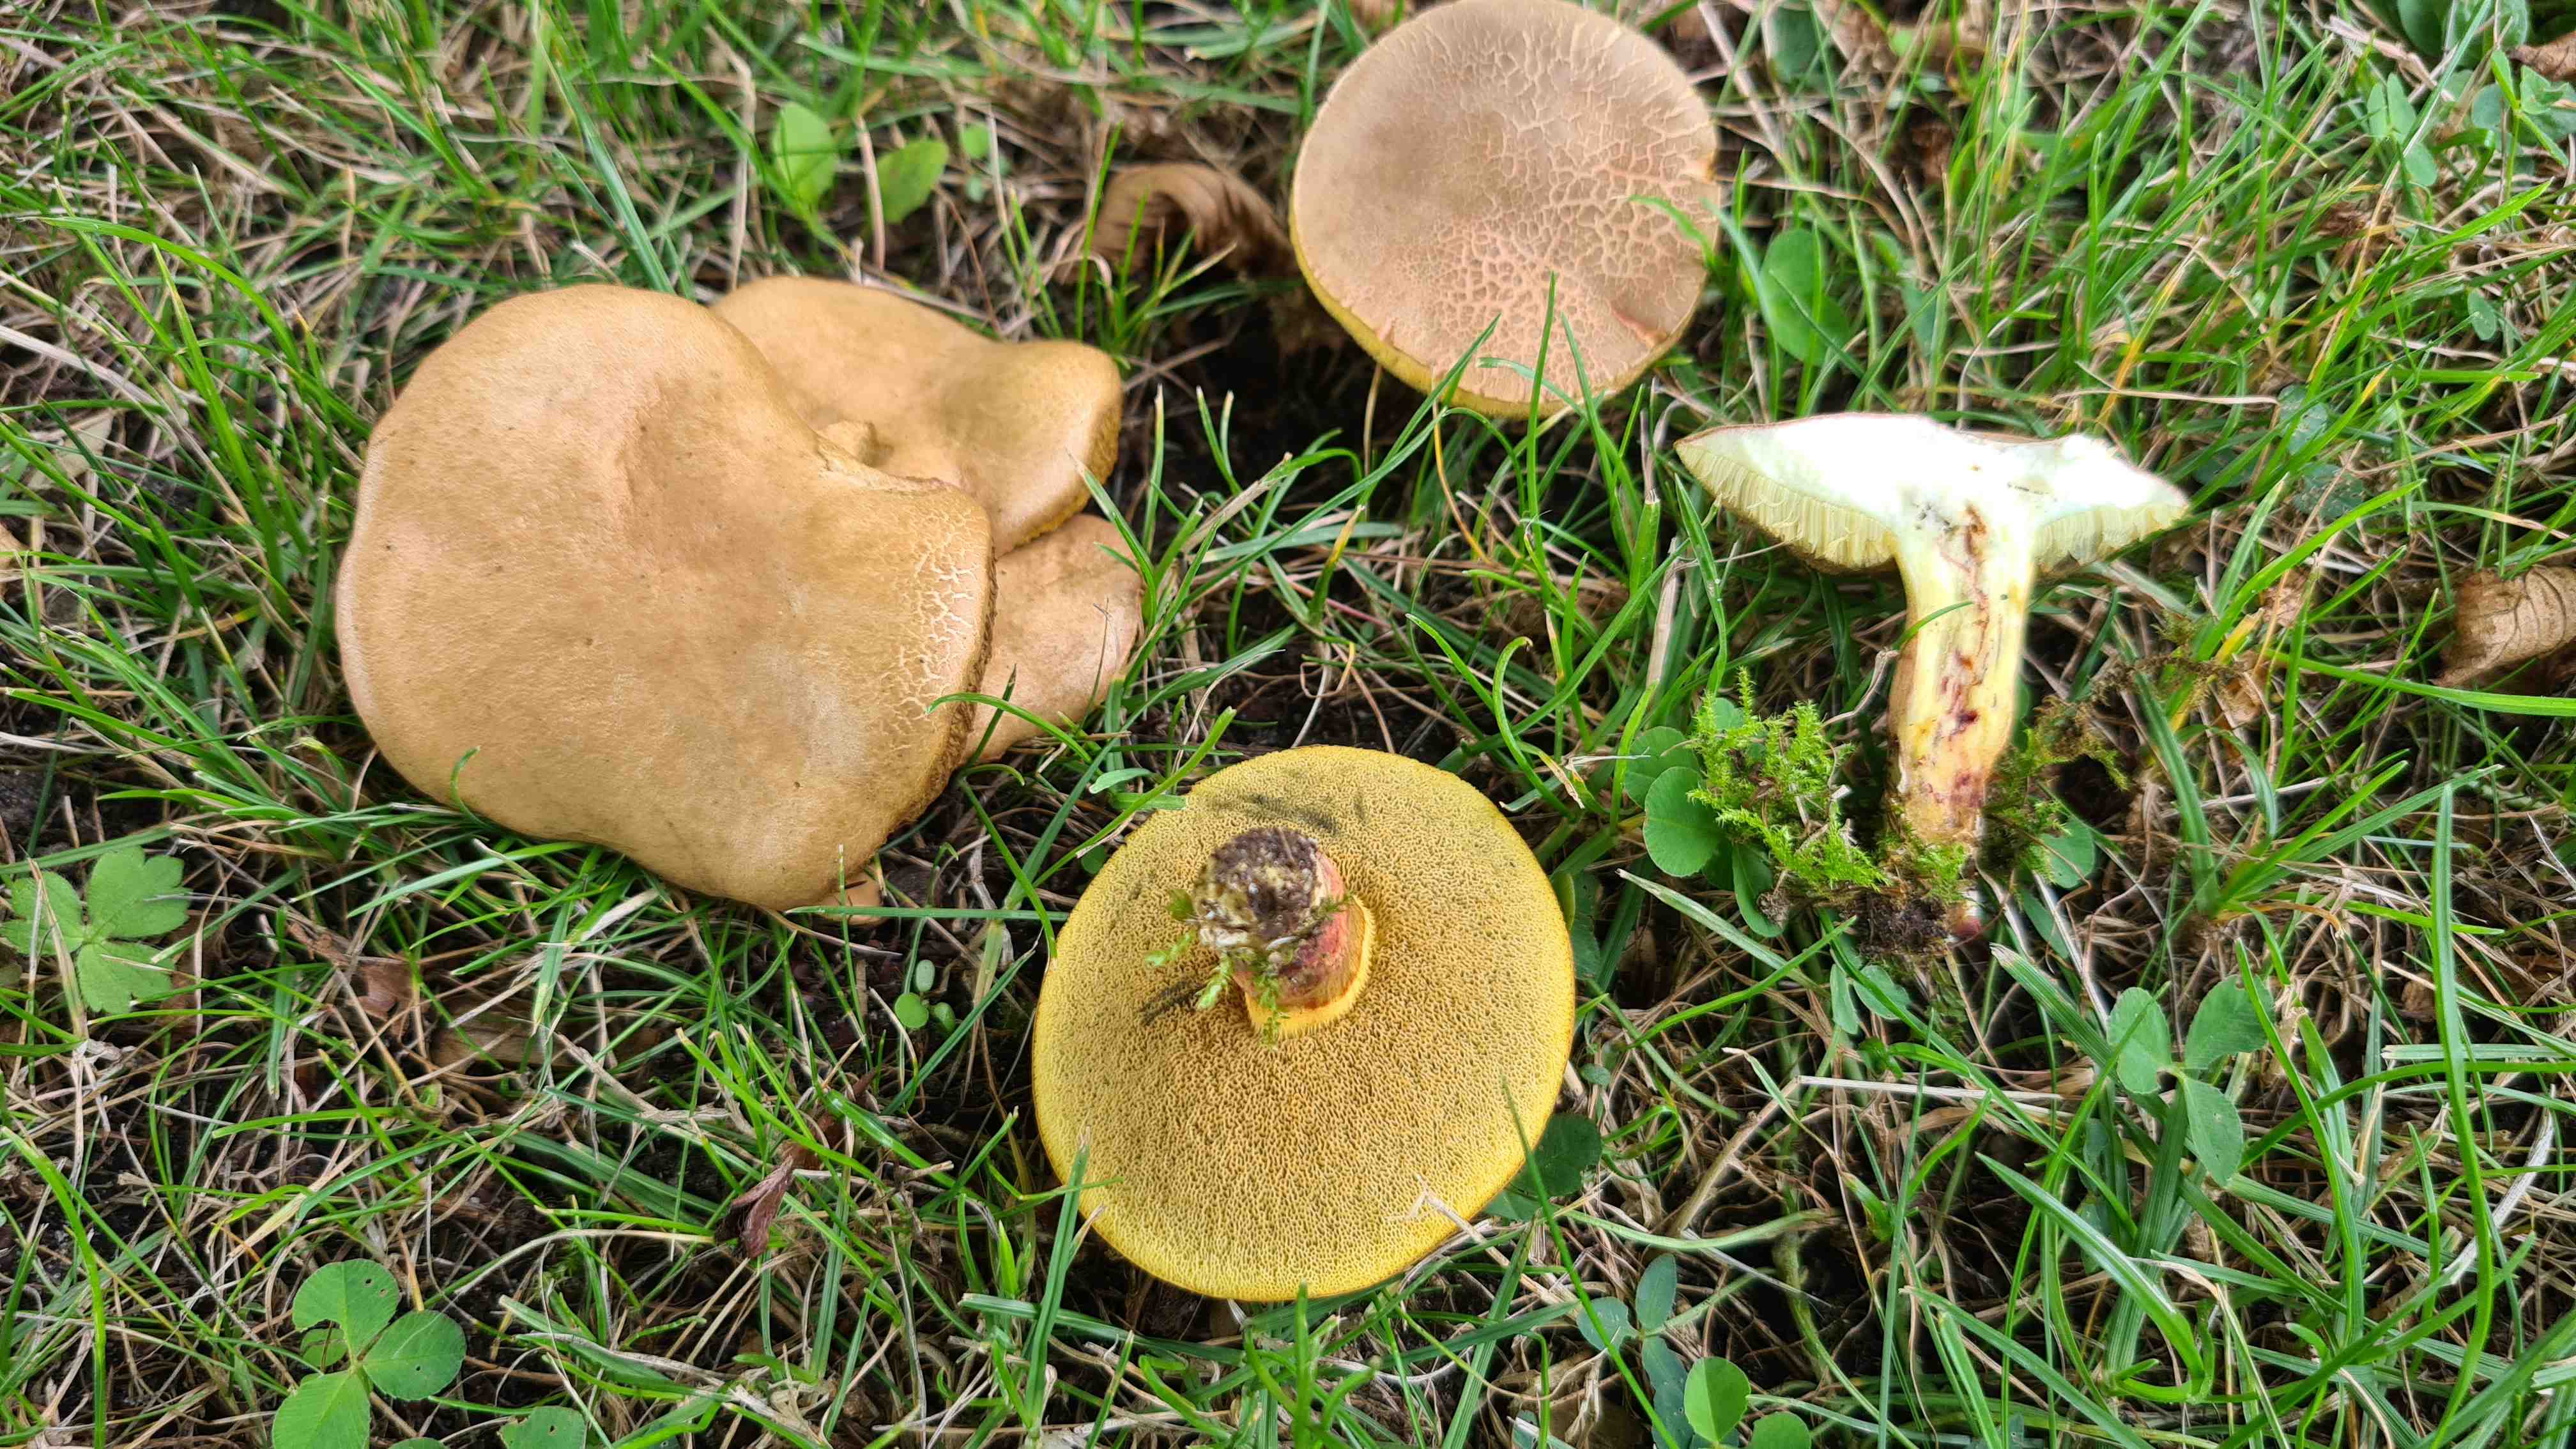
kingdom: Fungi
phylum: Basidiomycota
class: Agaricomycetes
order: Boletales
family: Boletaceae
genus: Xerocomellus
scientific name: Xerocomellus cisalpinus
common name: finsprukken rørhat
